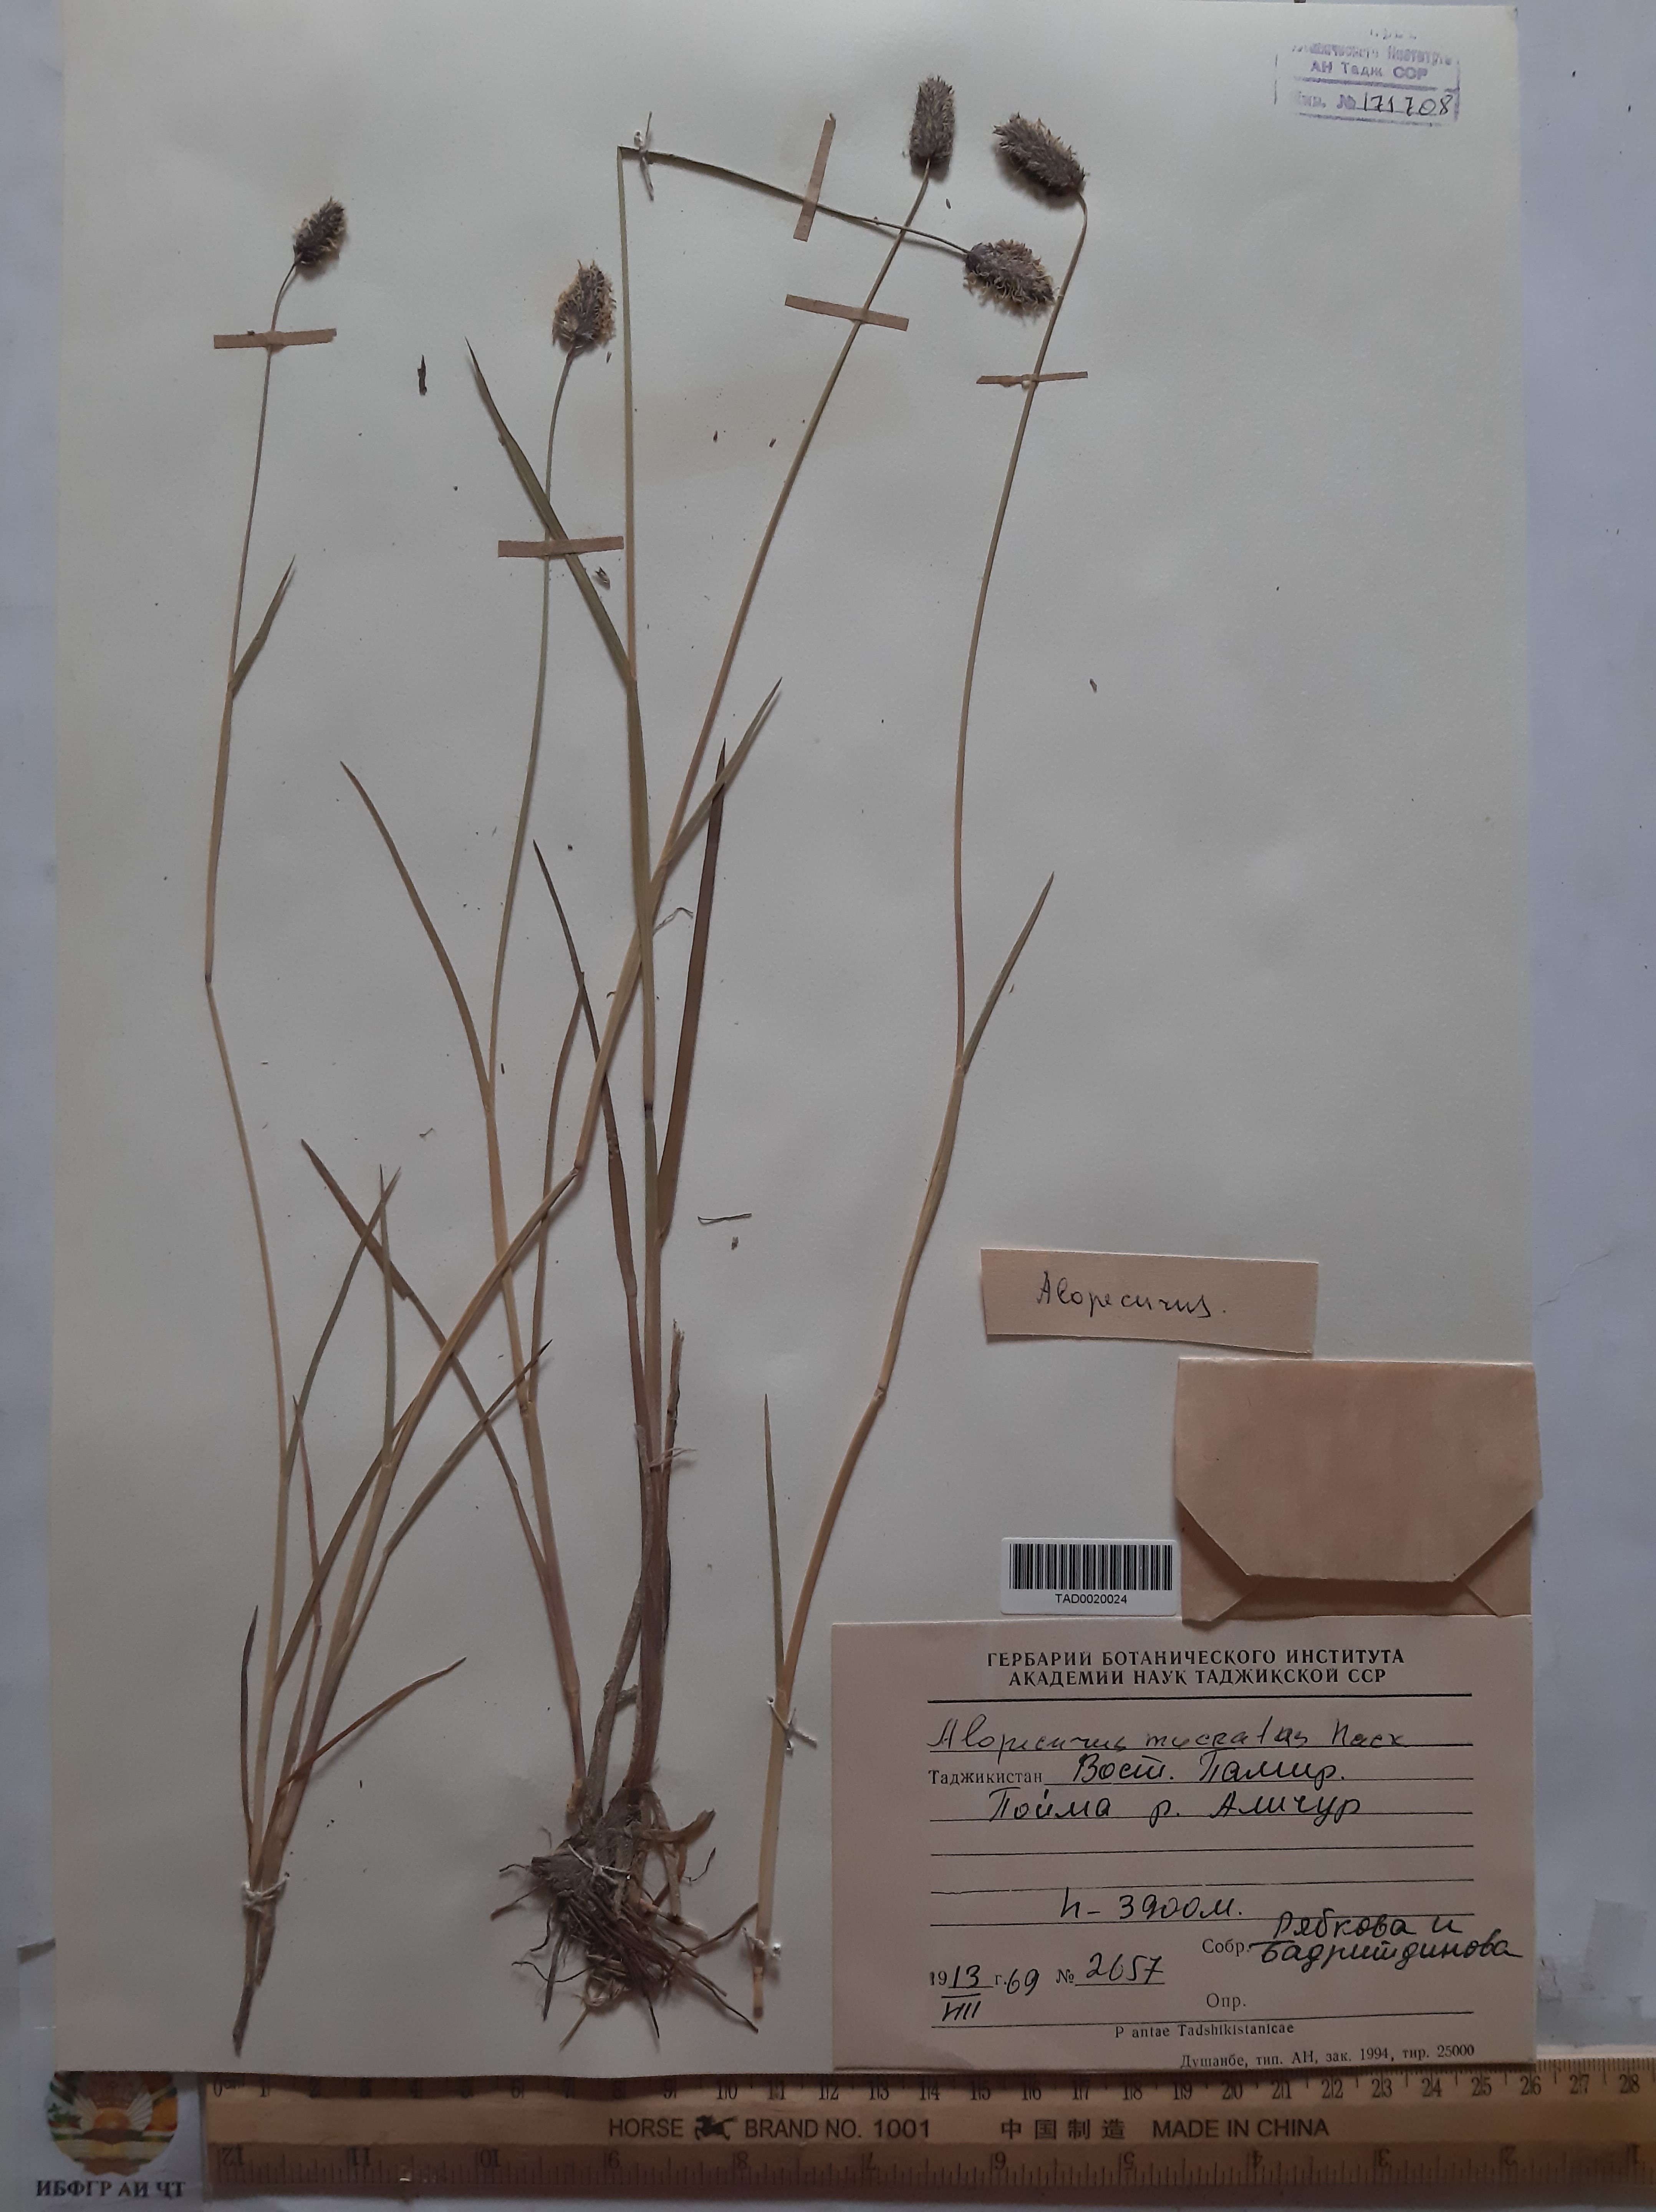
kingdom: Plantae
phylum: Tracheophyta
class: Liliopsida
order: Poales
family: Poaceae
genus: Alopecurus
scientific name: Alopecurus mucronatus
